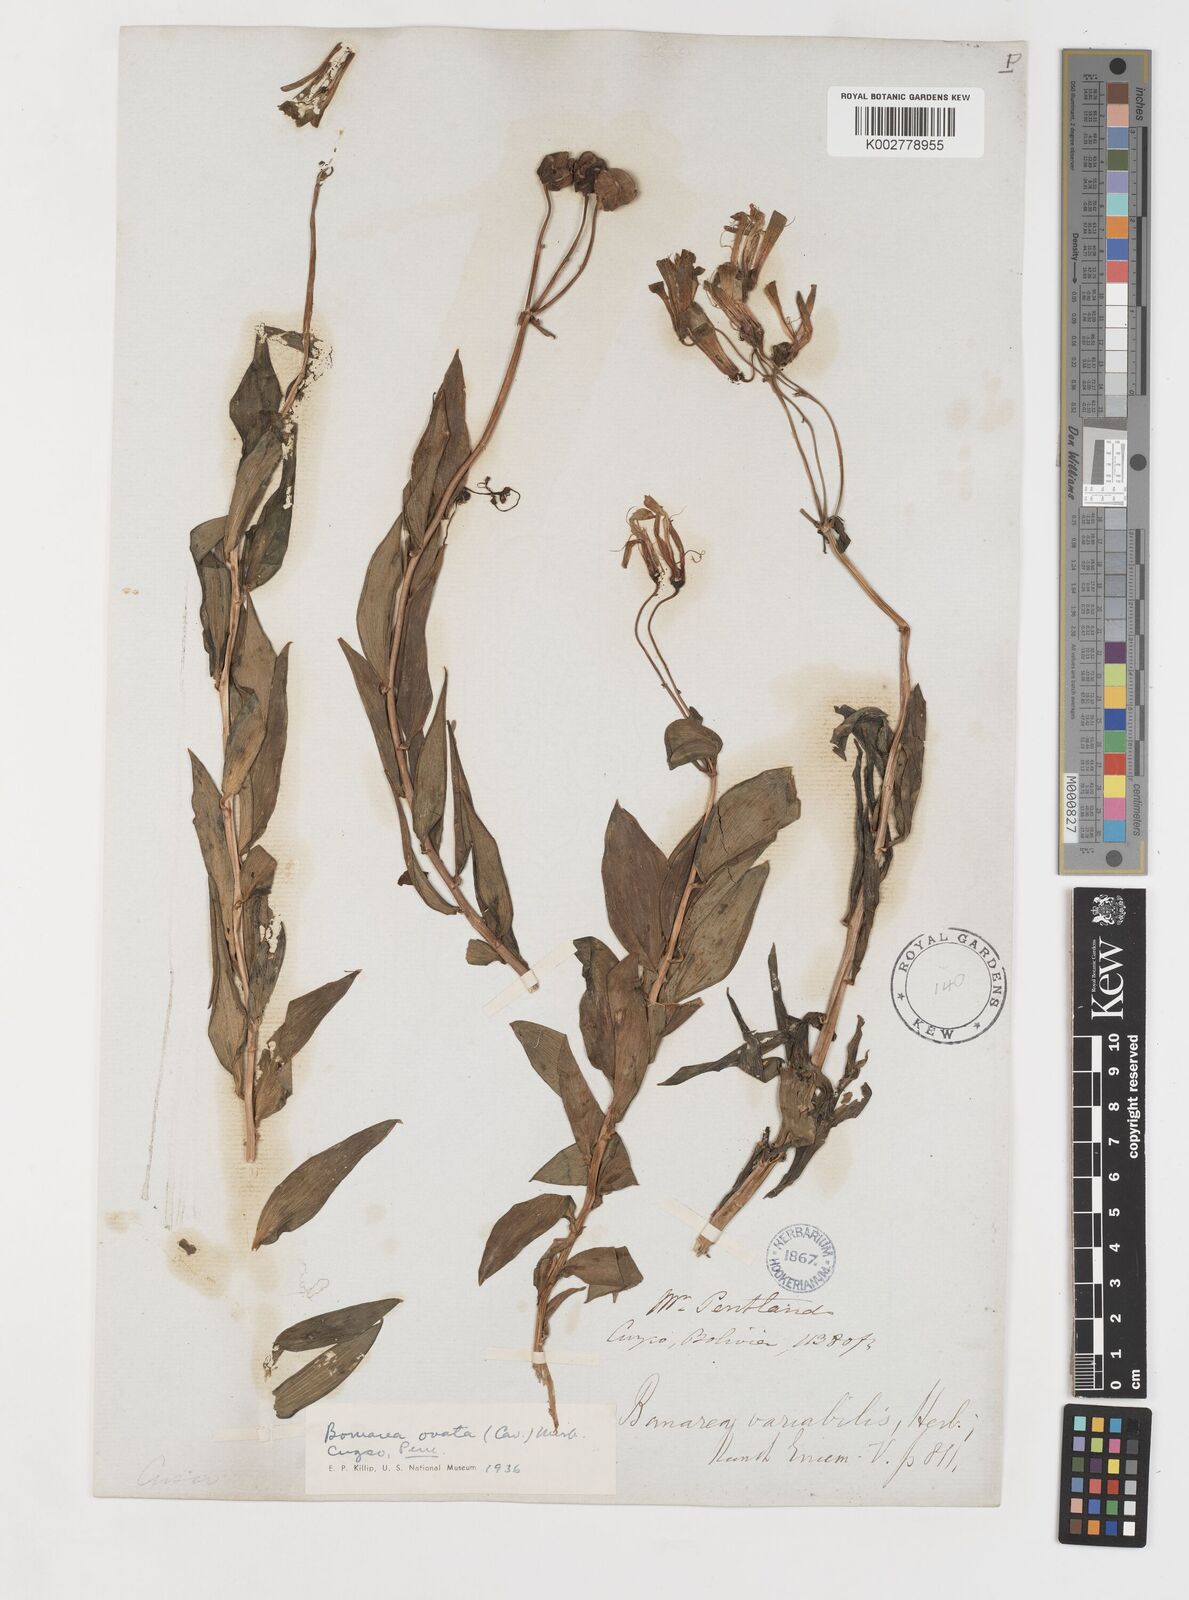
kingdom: Plantae
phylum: Tracheophyta
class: Liliopsida
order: Liliales
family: Alstroemeriaceae
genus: Bomarea
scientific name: Bomarea ovata
